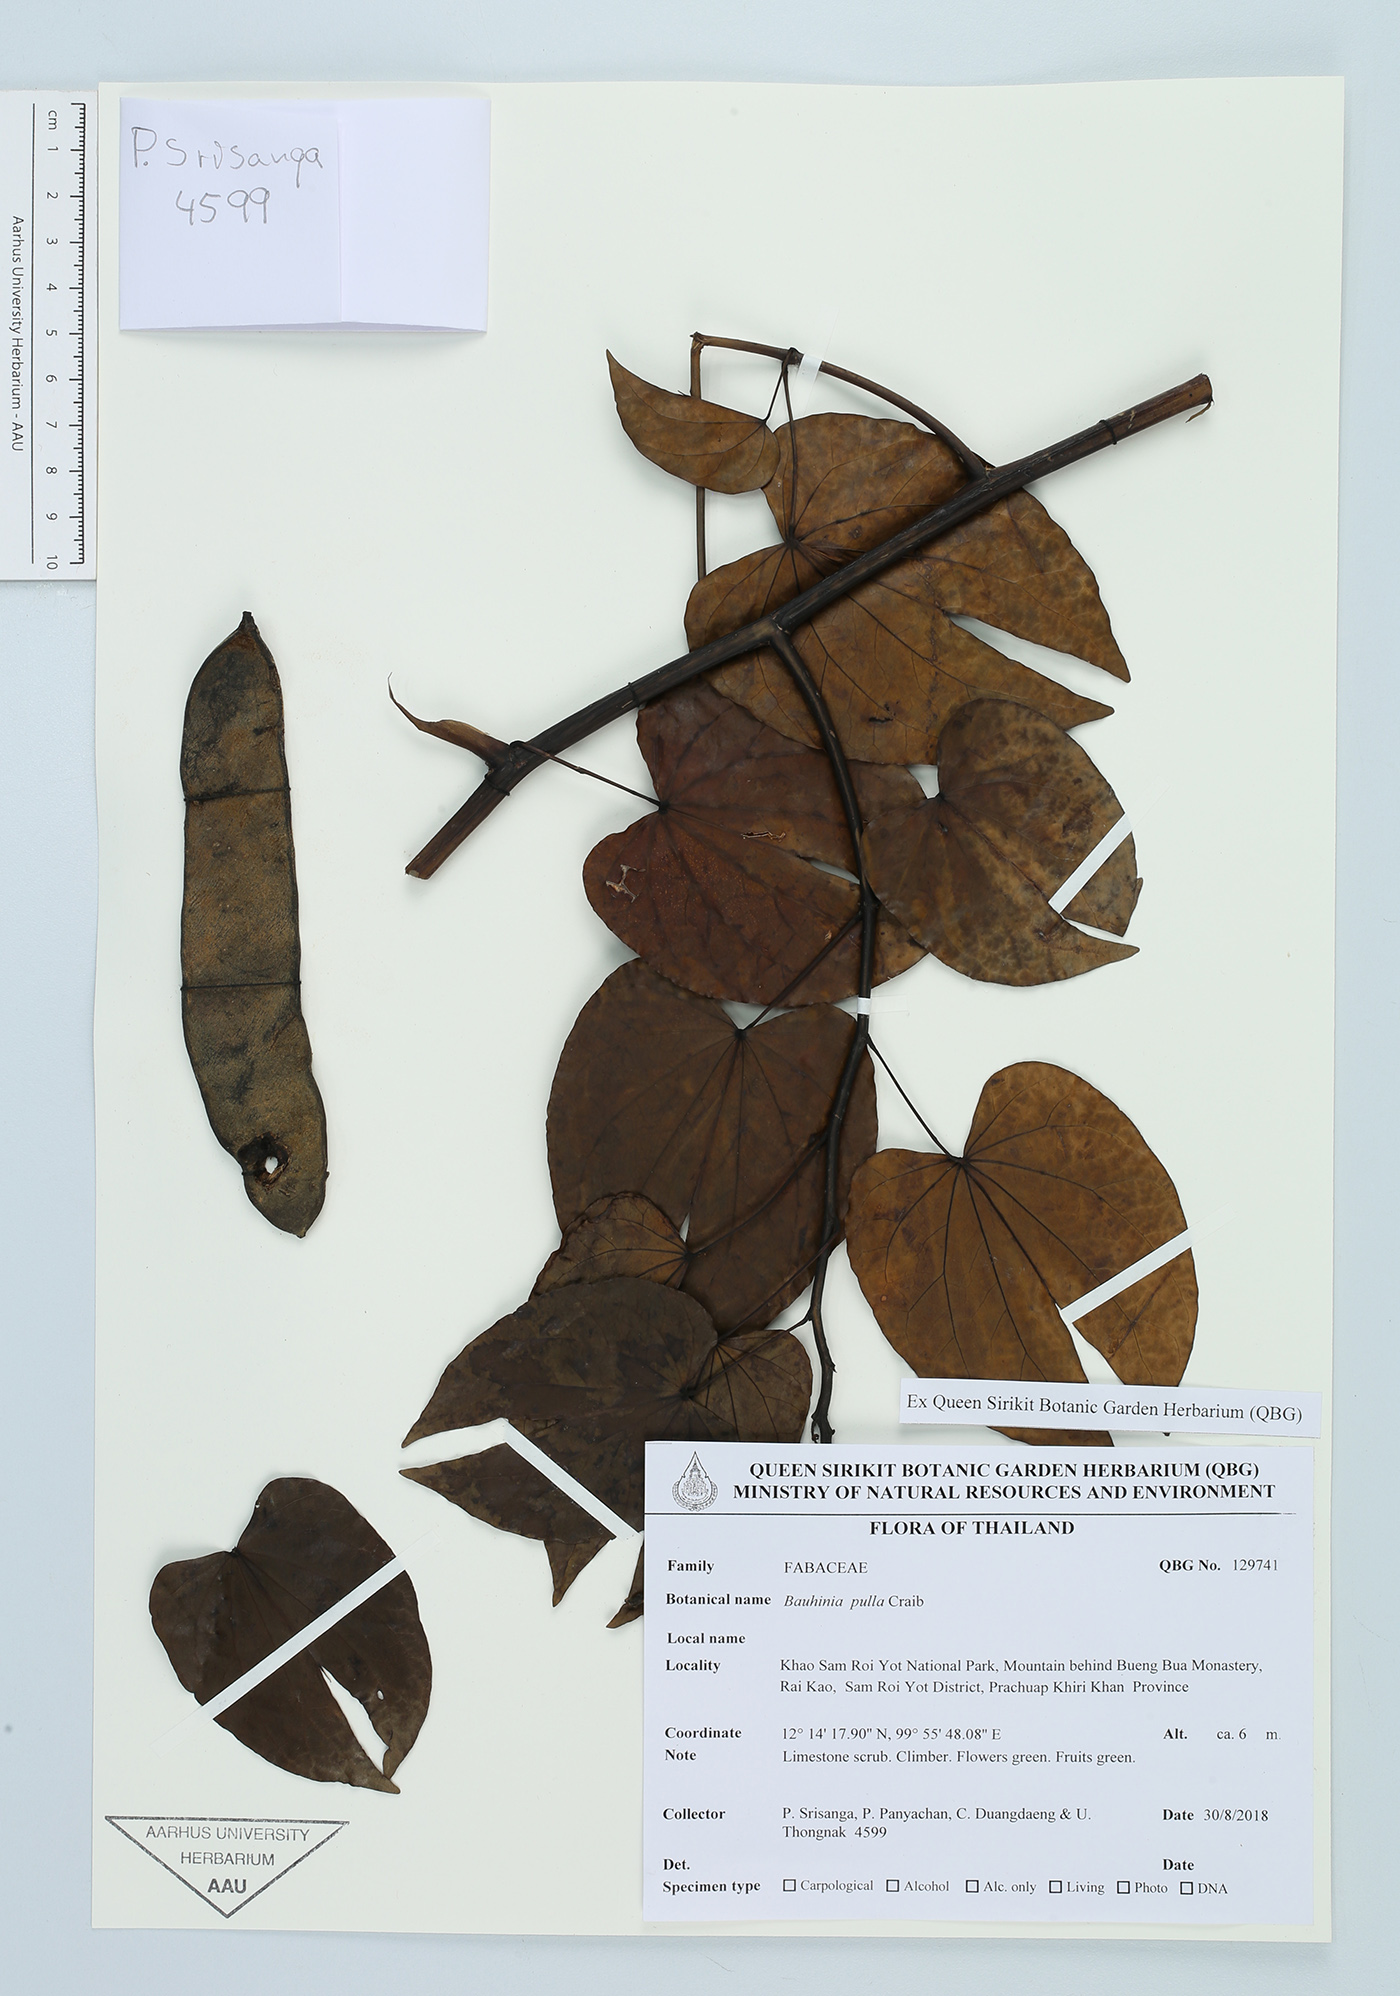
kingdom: Plantae
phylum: Tracheophyta
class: Magnoliopsida
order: Fabales
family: Fabaceae
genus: Phanera
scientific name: Phanera pulla
